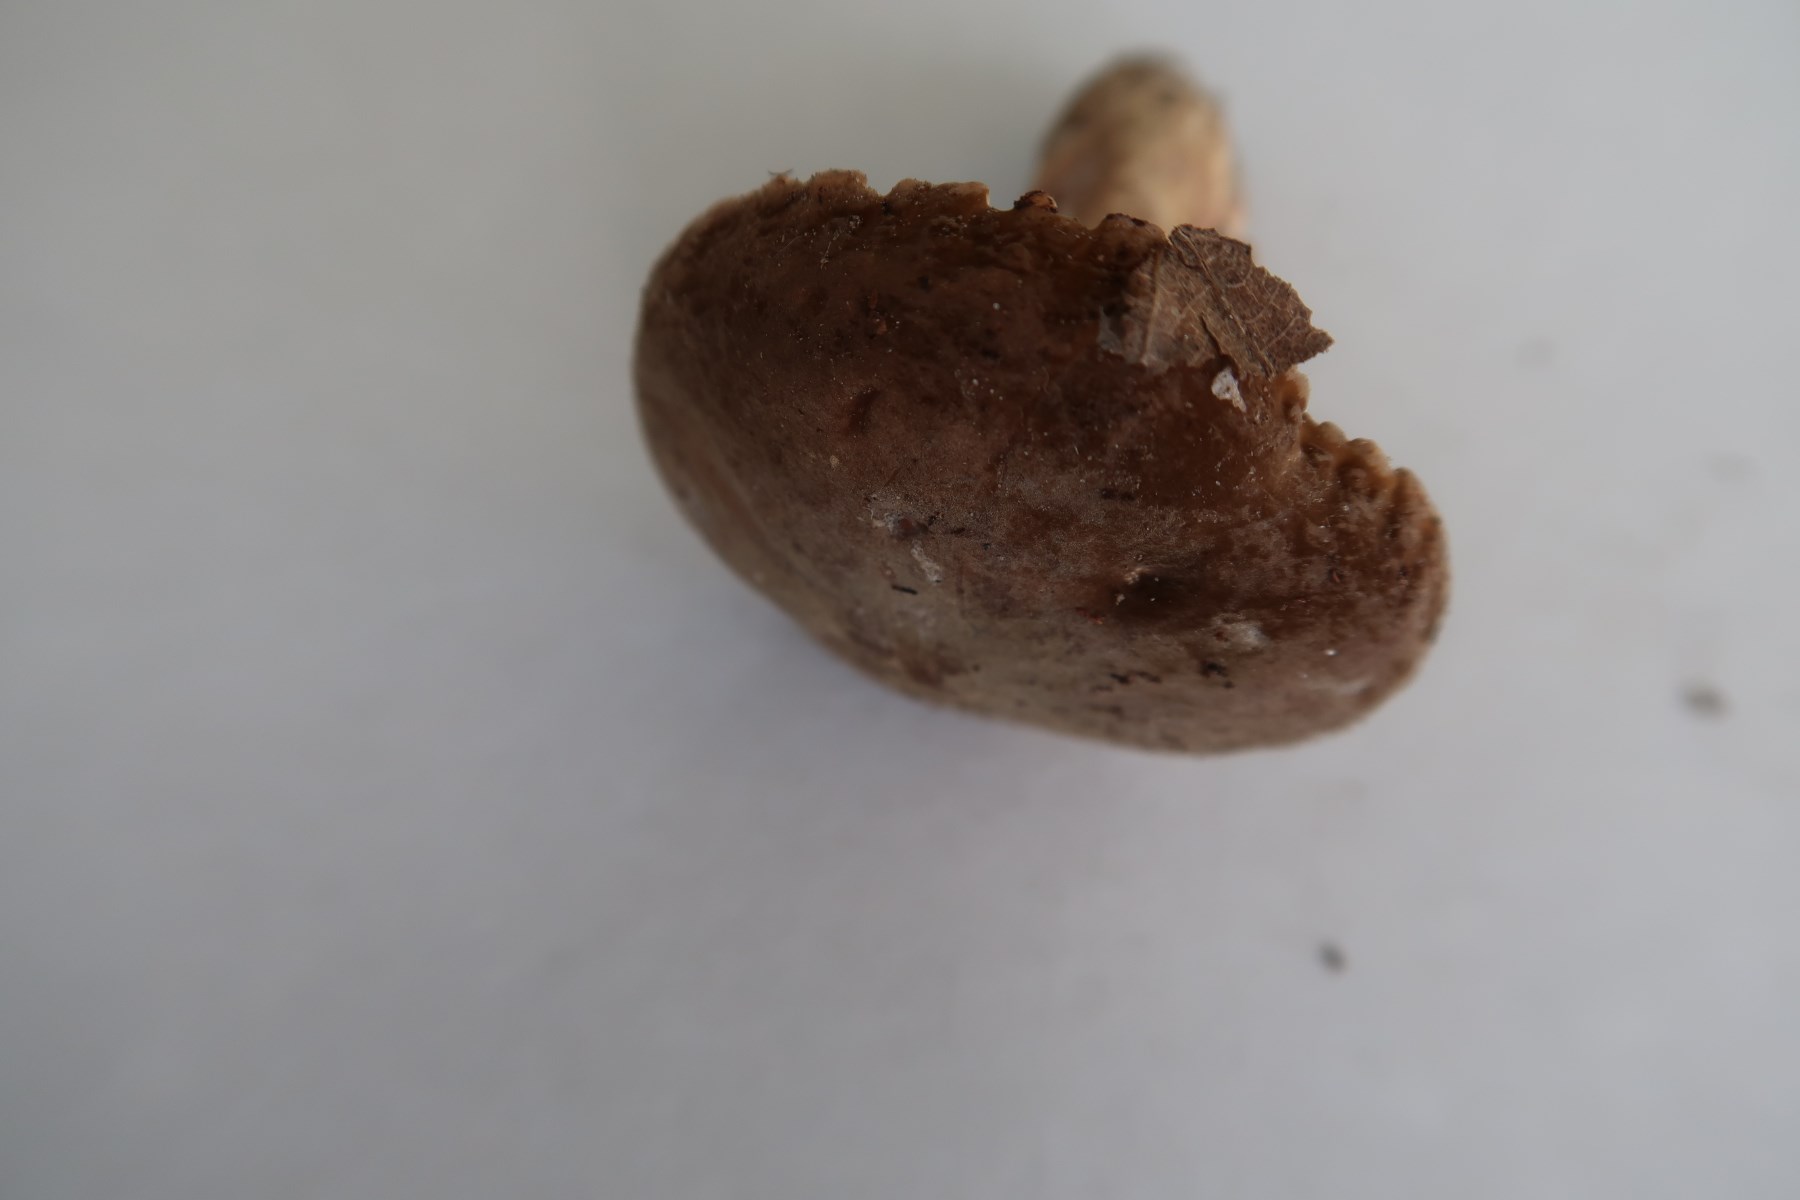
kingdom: Fungi
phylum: Basidiomycota
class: Agaricomycetes
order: Russulales
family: Russulaceae
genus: Lactarius
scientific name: Lactarius ruginosus
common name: gråbrun mælkehat
